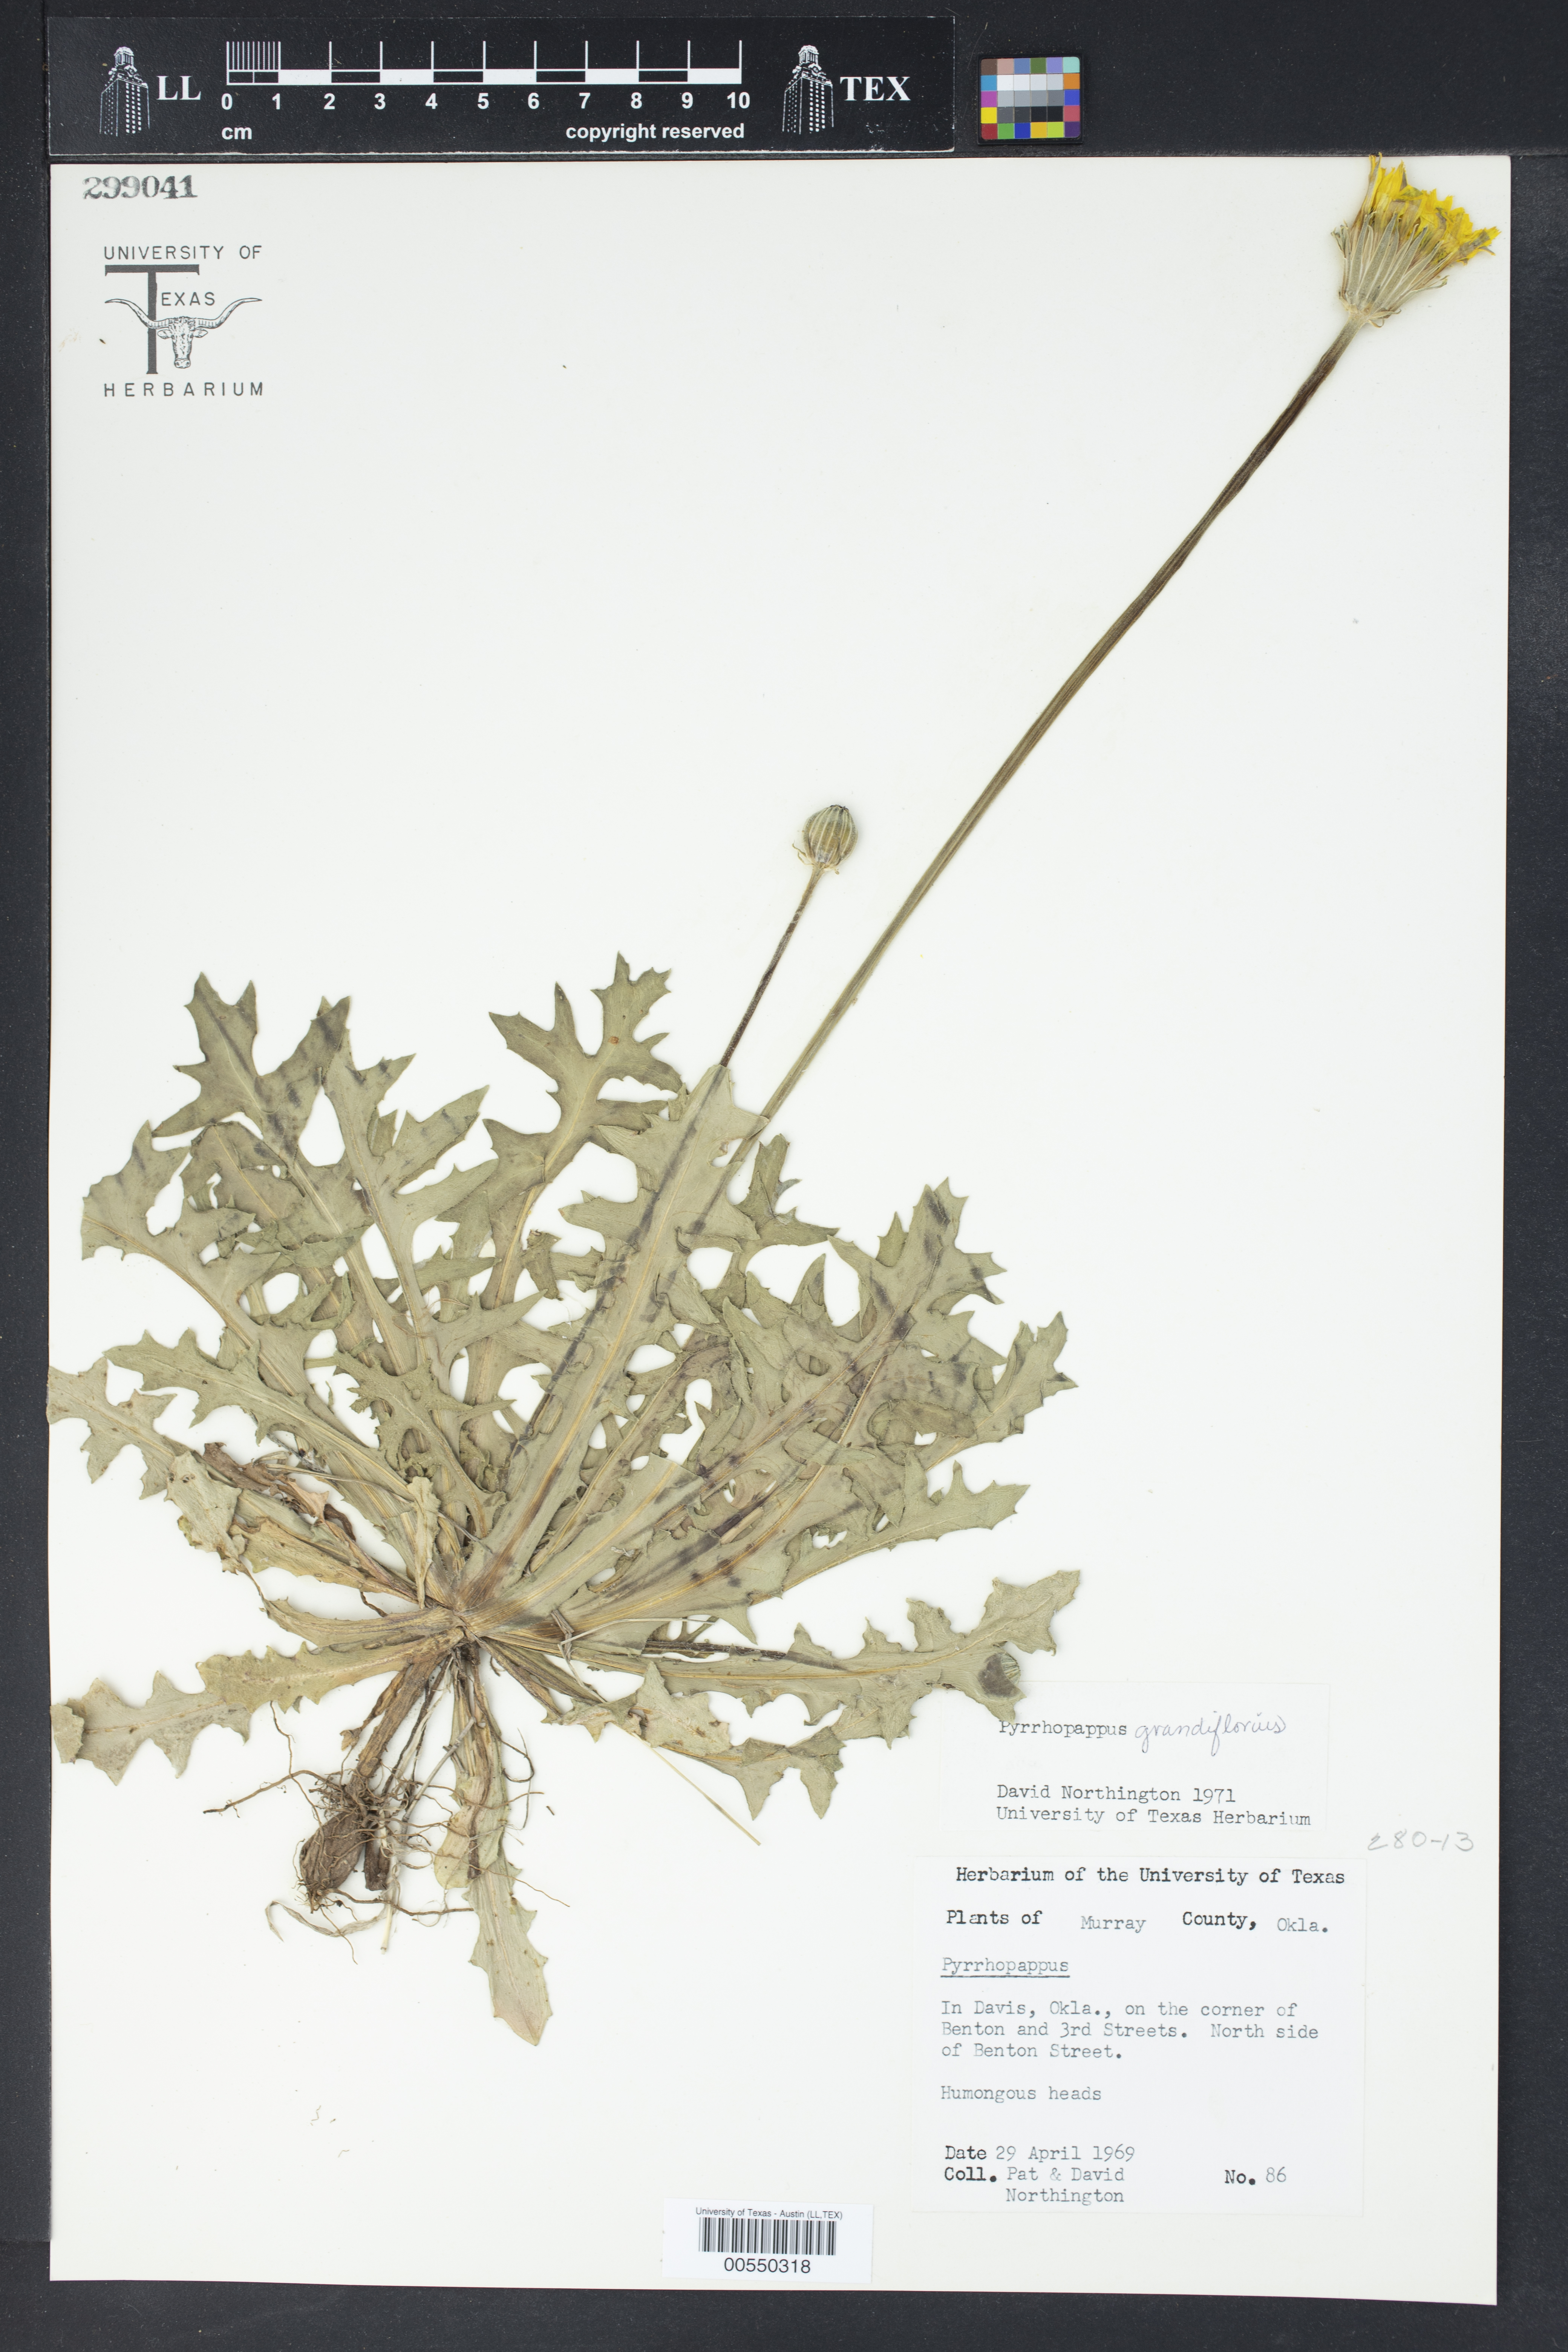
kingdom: Plantae
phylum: Tracheophyta
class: Magnoliopsida
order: Asterales
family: Asteraceae
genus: Pyrrhopappus
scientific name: Pyrrhopappus grandiflorus
